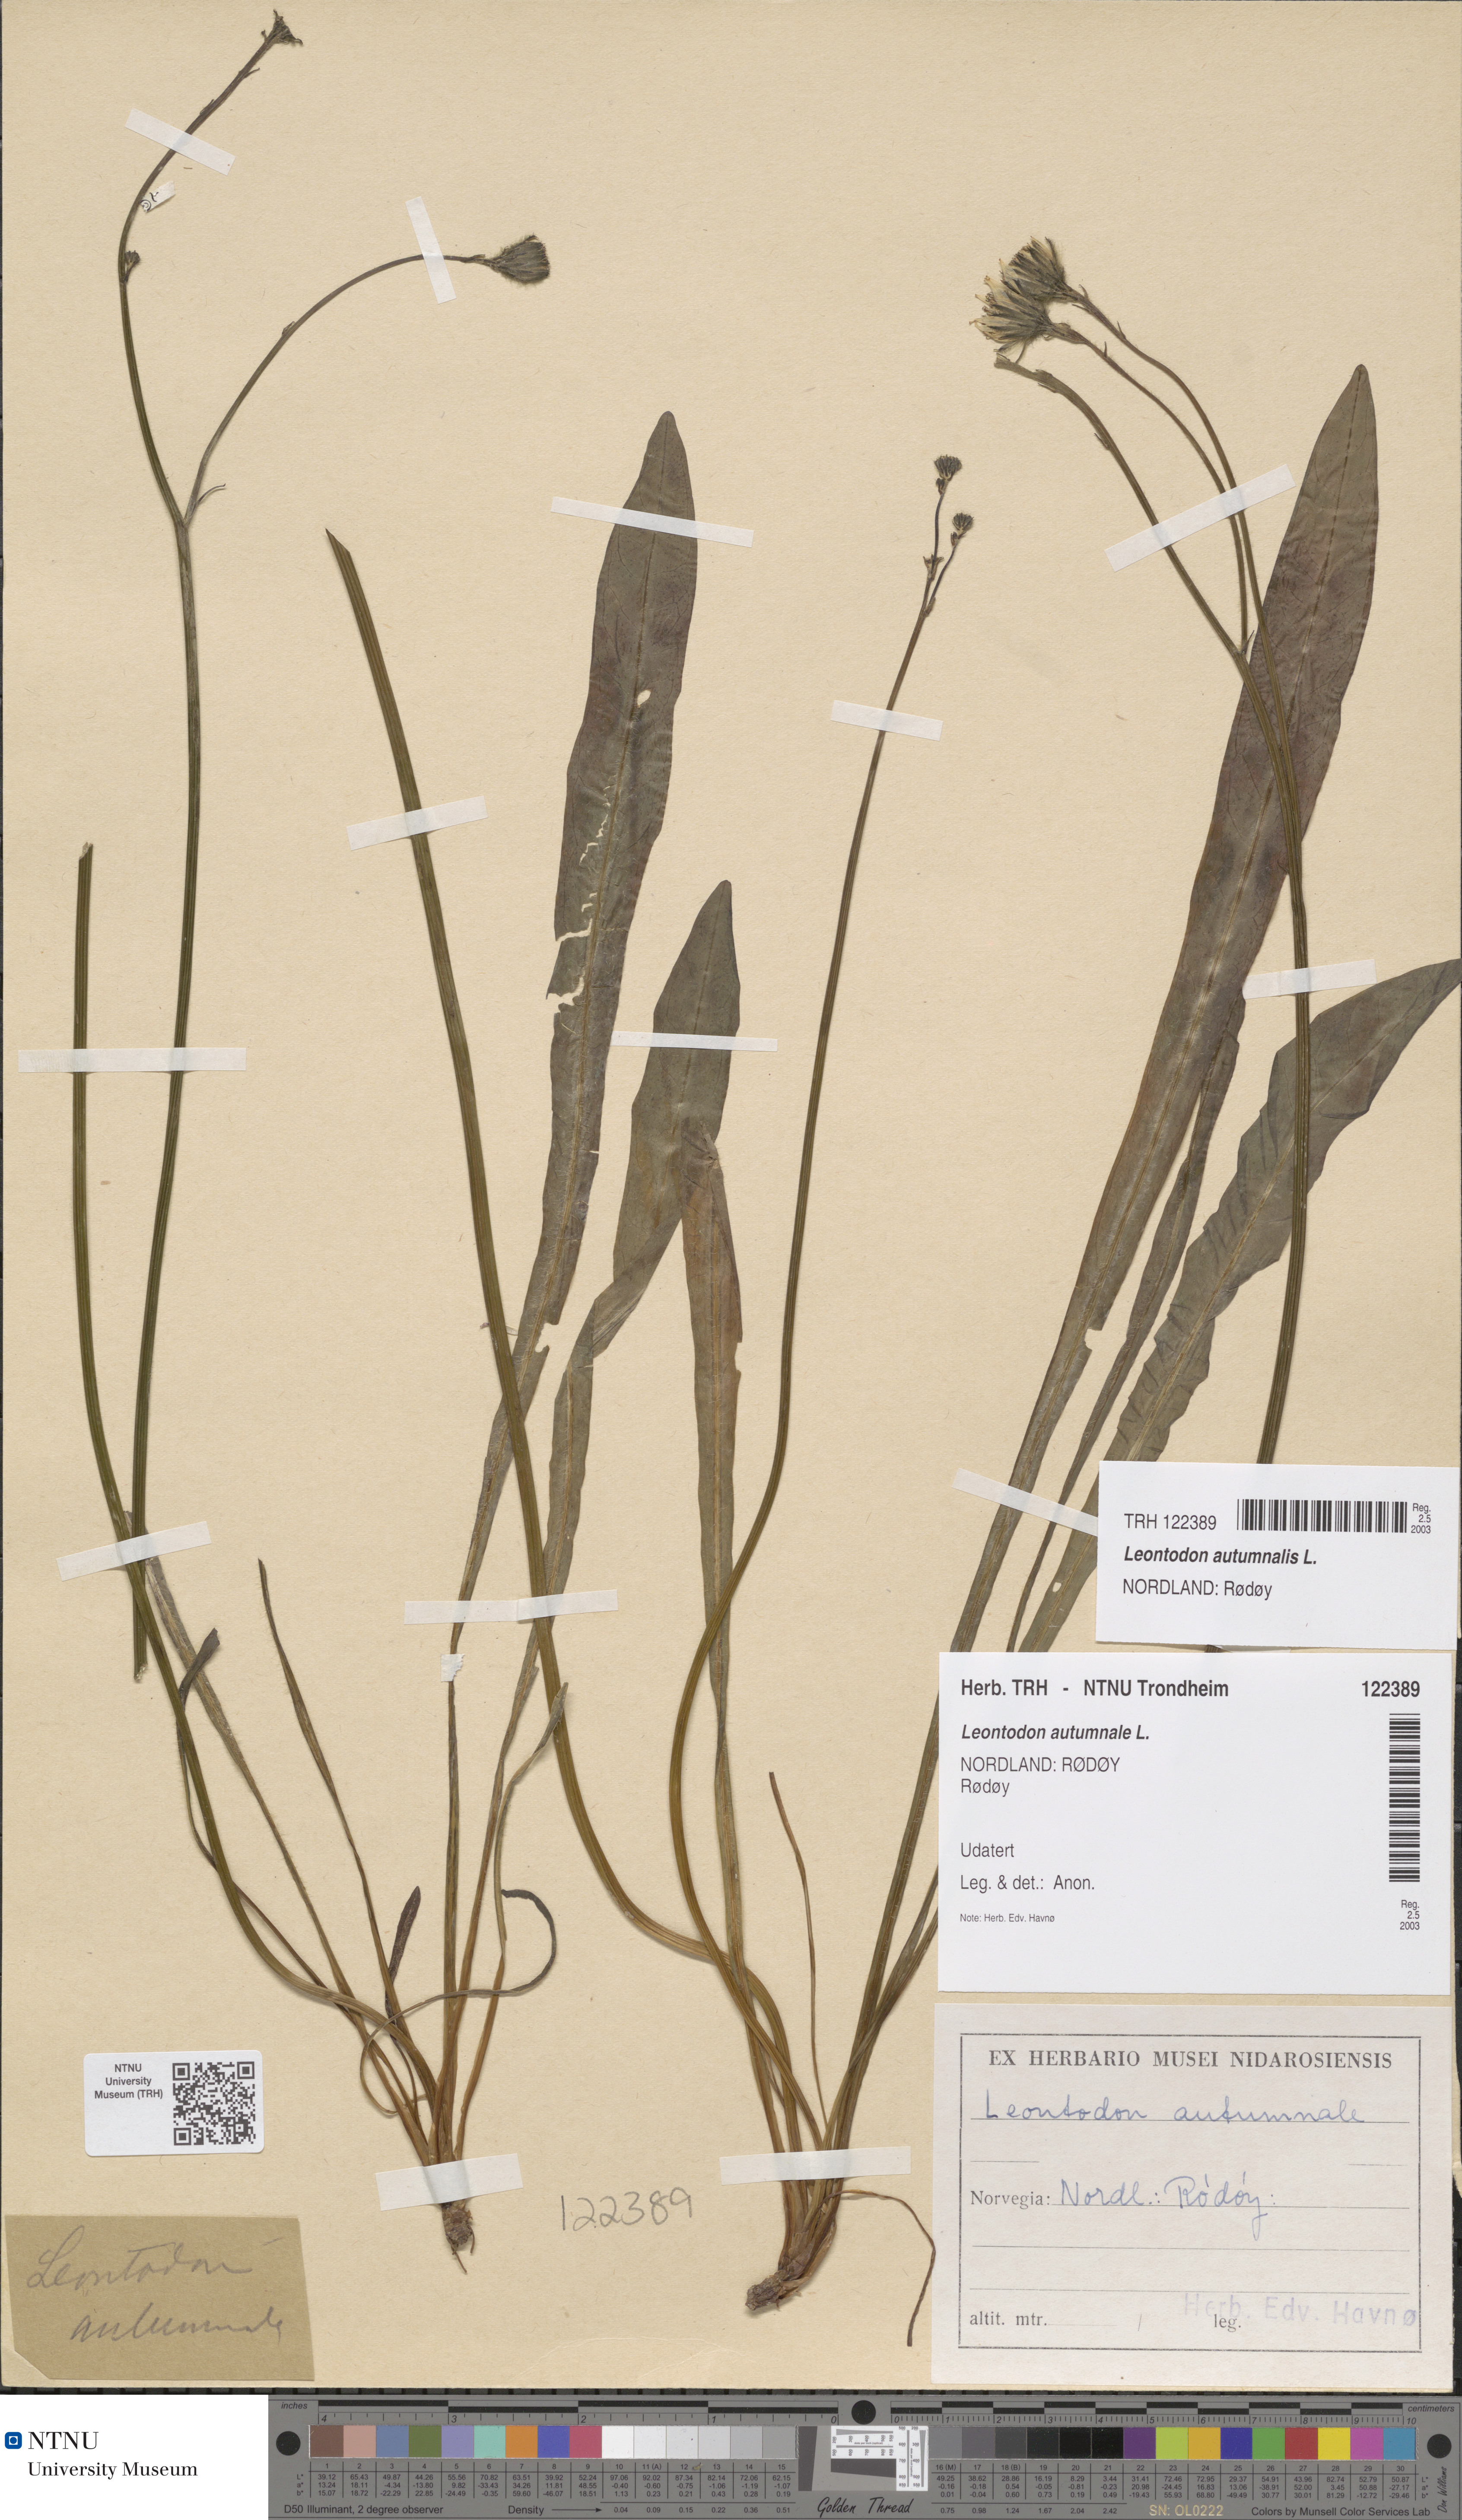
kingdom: Plantae
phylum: Tracheophyta
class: Magnoliopsida
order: Asterales
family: Asteraceae
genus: Scorzoneroides
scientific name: Scorzoneroides autumnalis
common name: Autumn hawkbit
